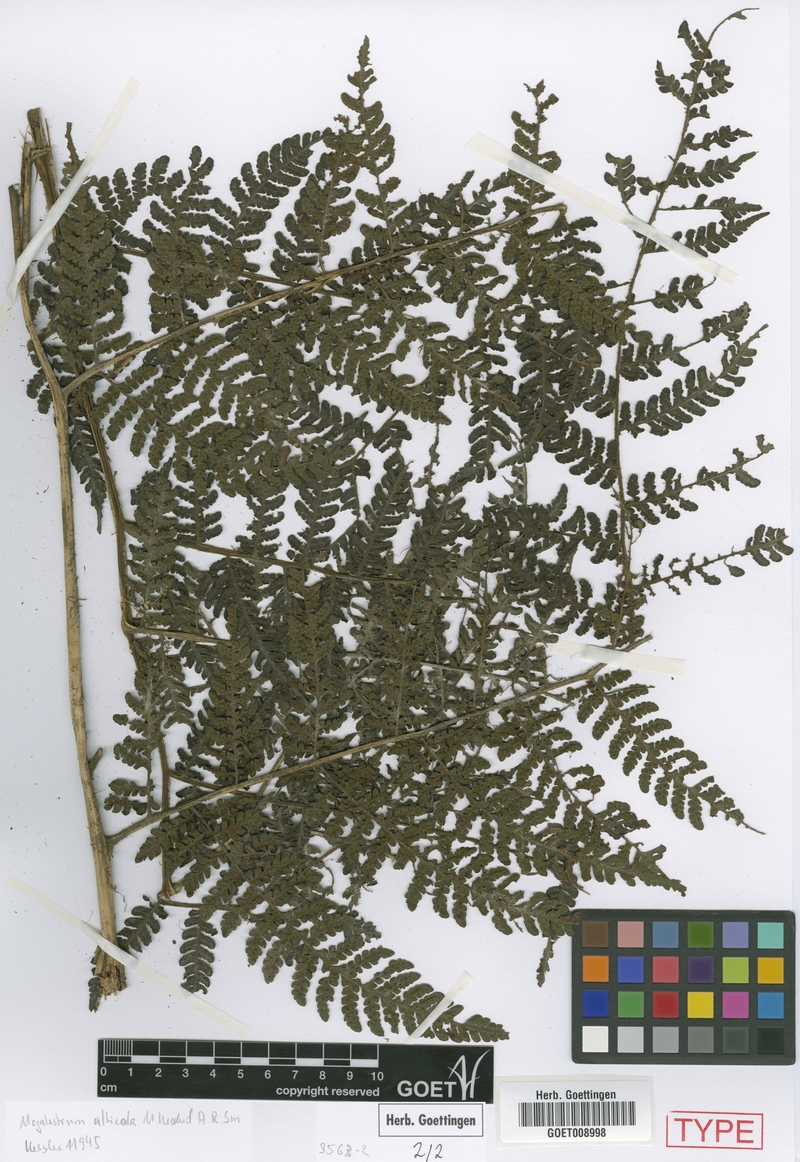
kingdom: Plantae
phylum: Tracheophyta
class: Polypodiopsida
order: Polypodiales
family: Dryopteridaceae
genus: Megalastrum
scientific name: Megalastrum alticola
